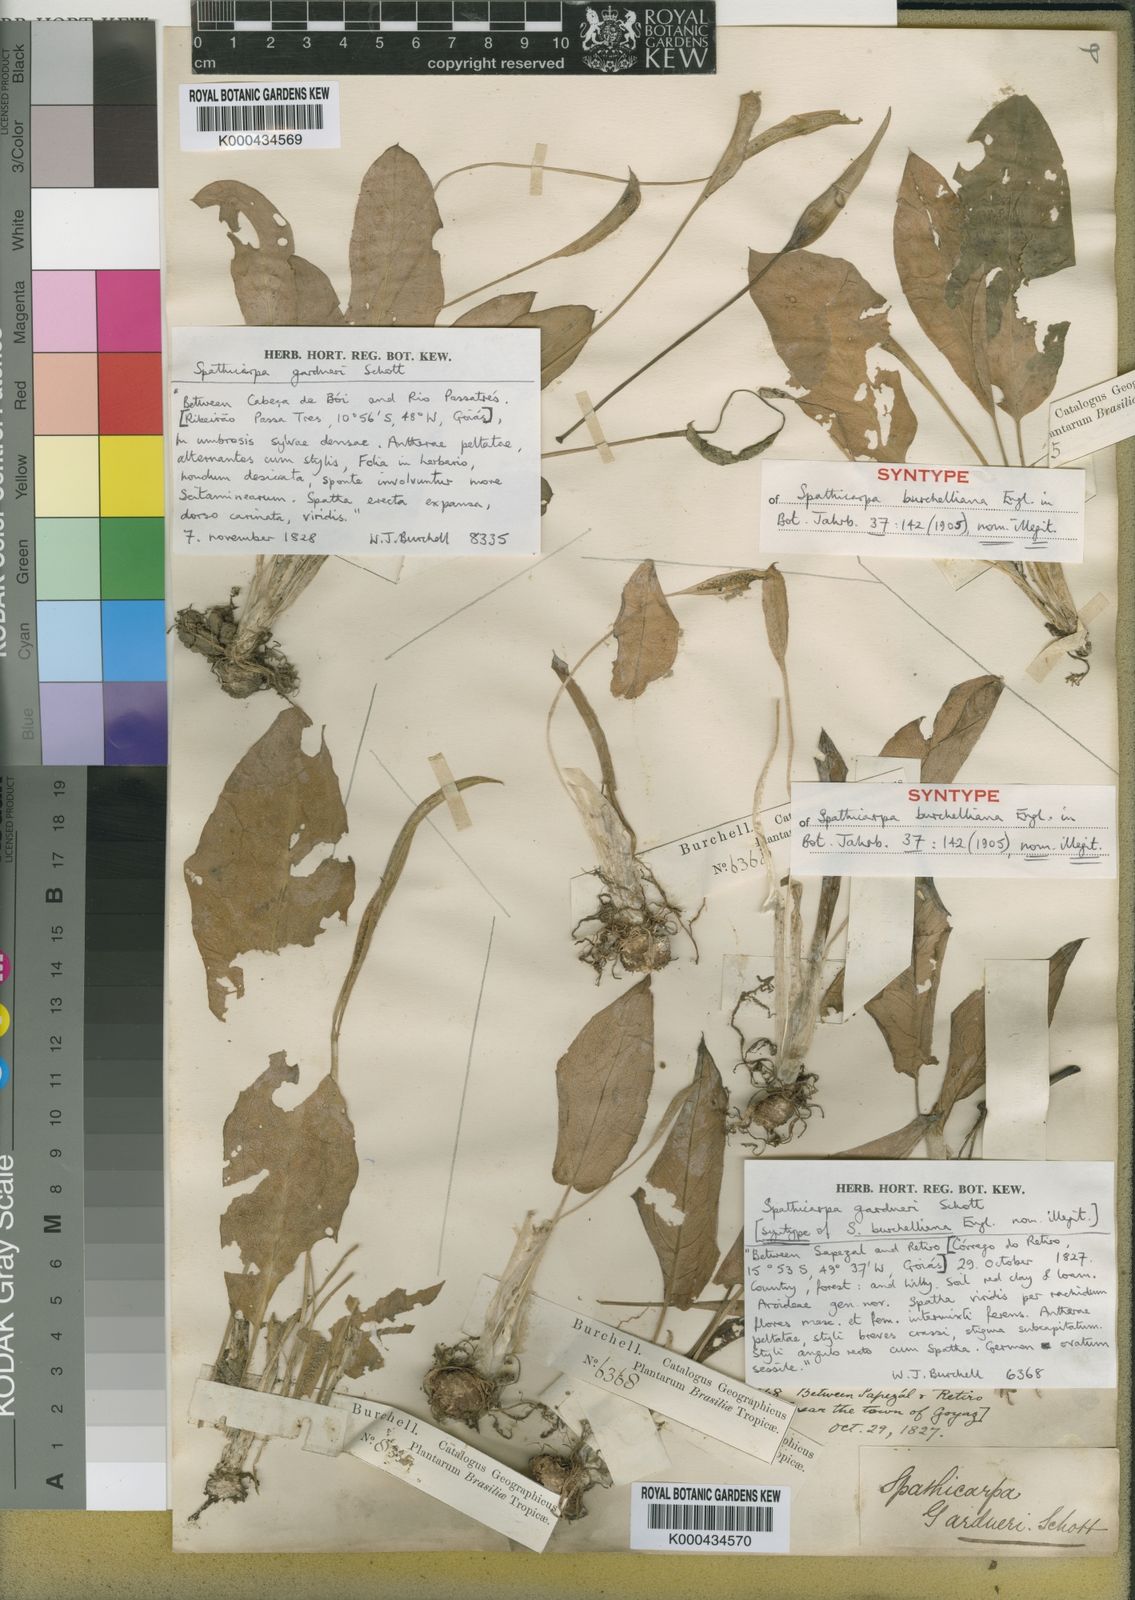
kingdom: Plantae
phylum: Tracheophyta
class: Liliopsida
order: Alismatales
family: Araceae
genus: Spathicarpa
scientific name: Spathicarpa gardneri
